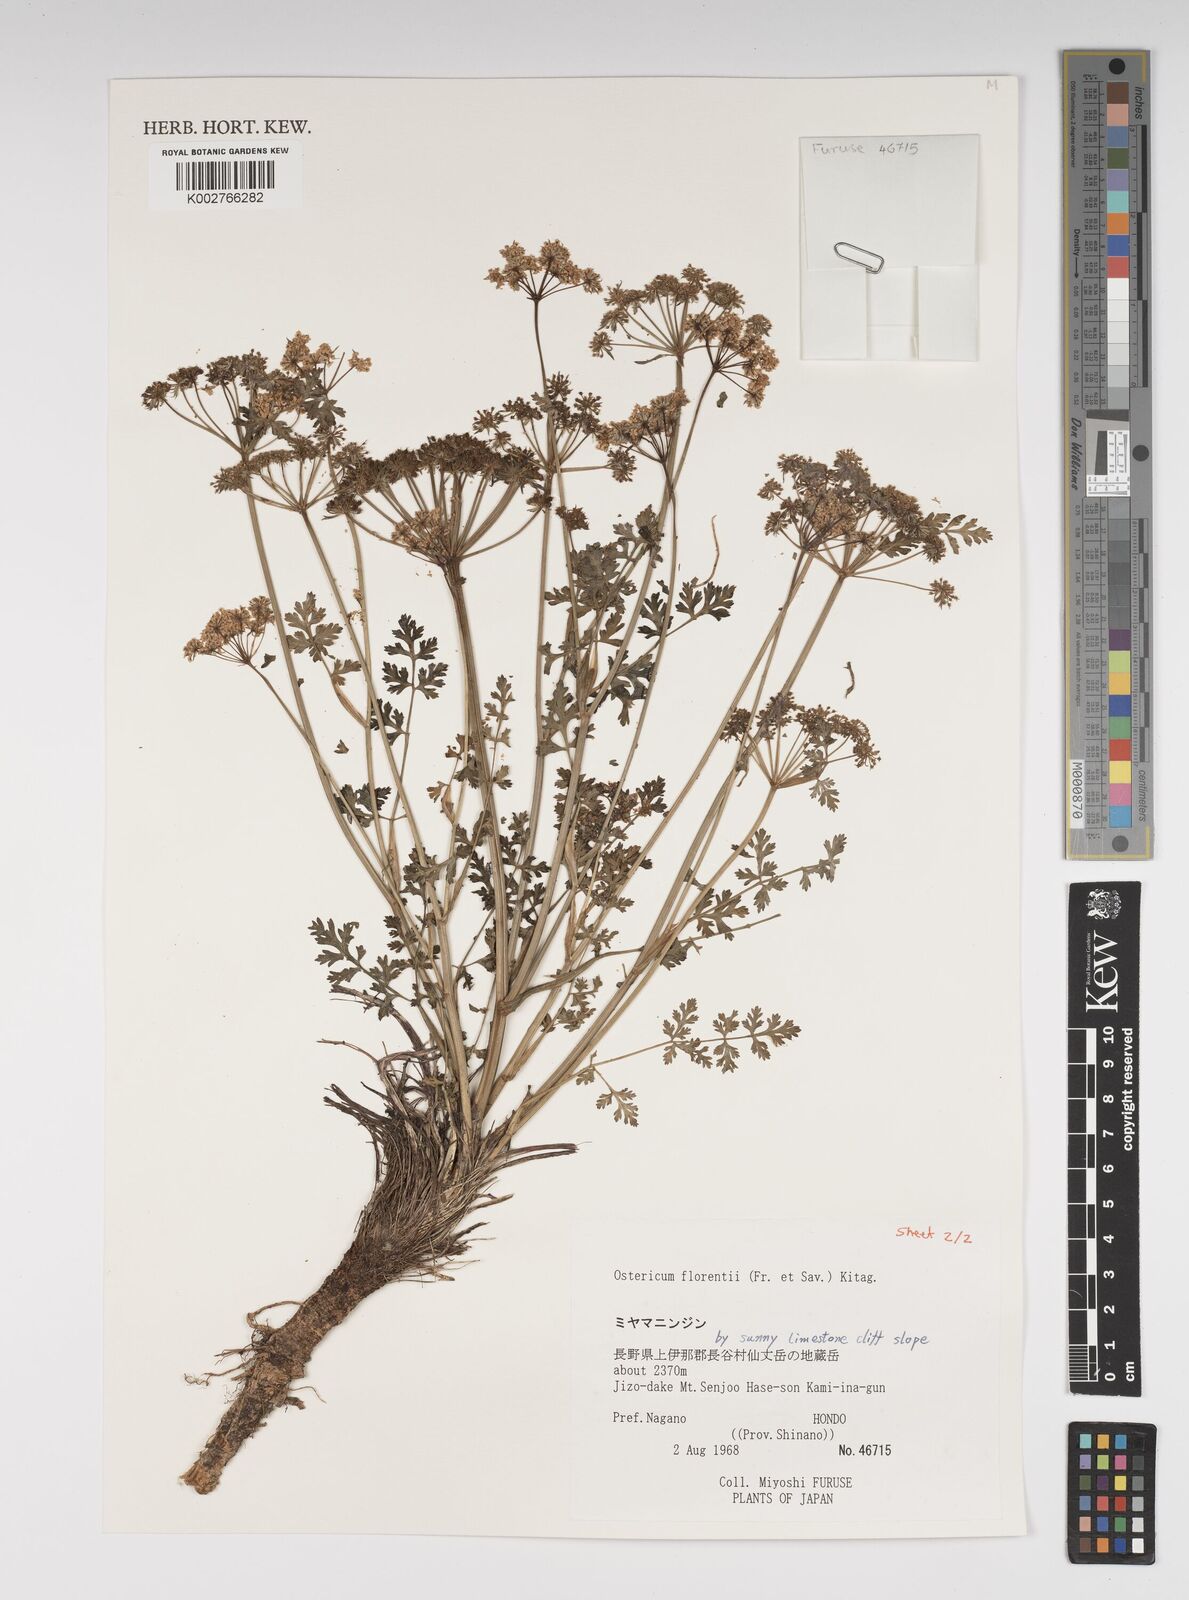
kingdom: Plantae
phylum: Tracheophyta
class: Magnoliopsida
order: Apiales
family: Apiaceae
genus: Ostericum
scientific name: Ostericum florenti
